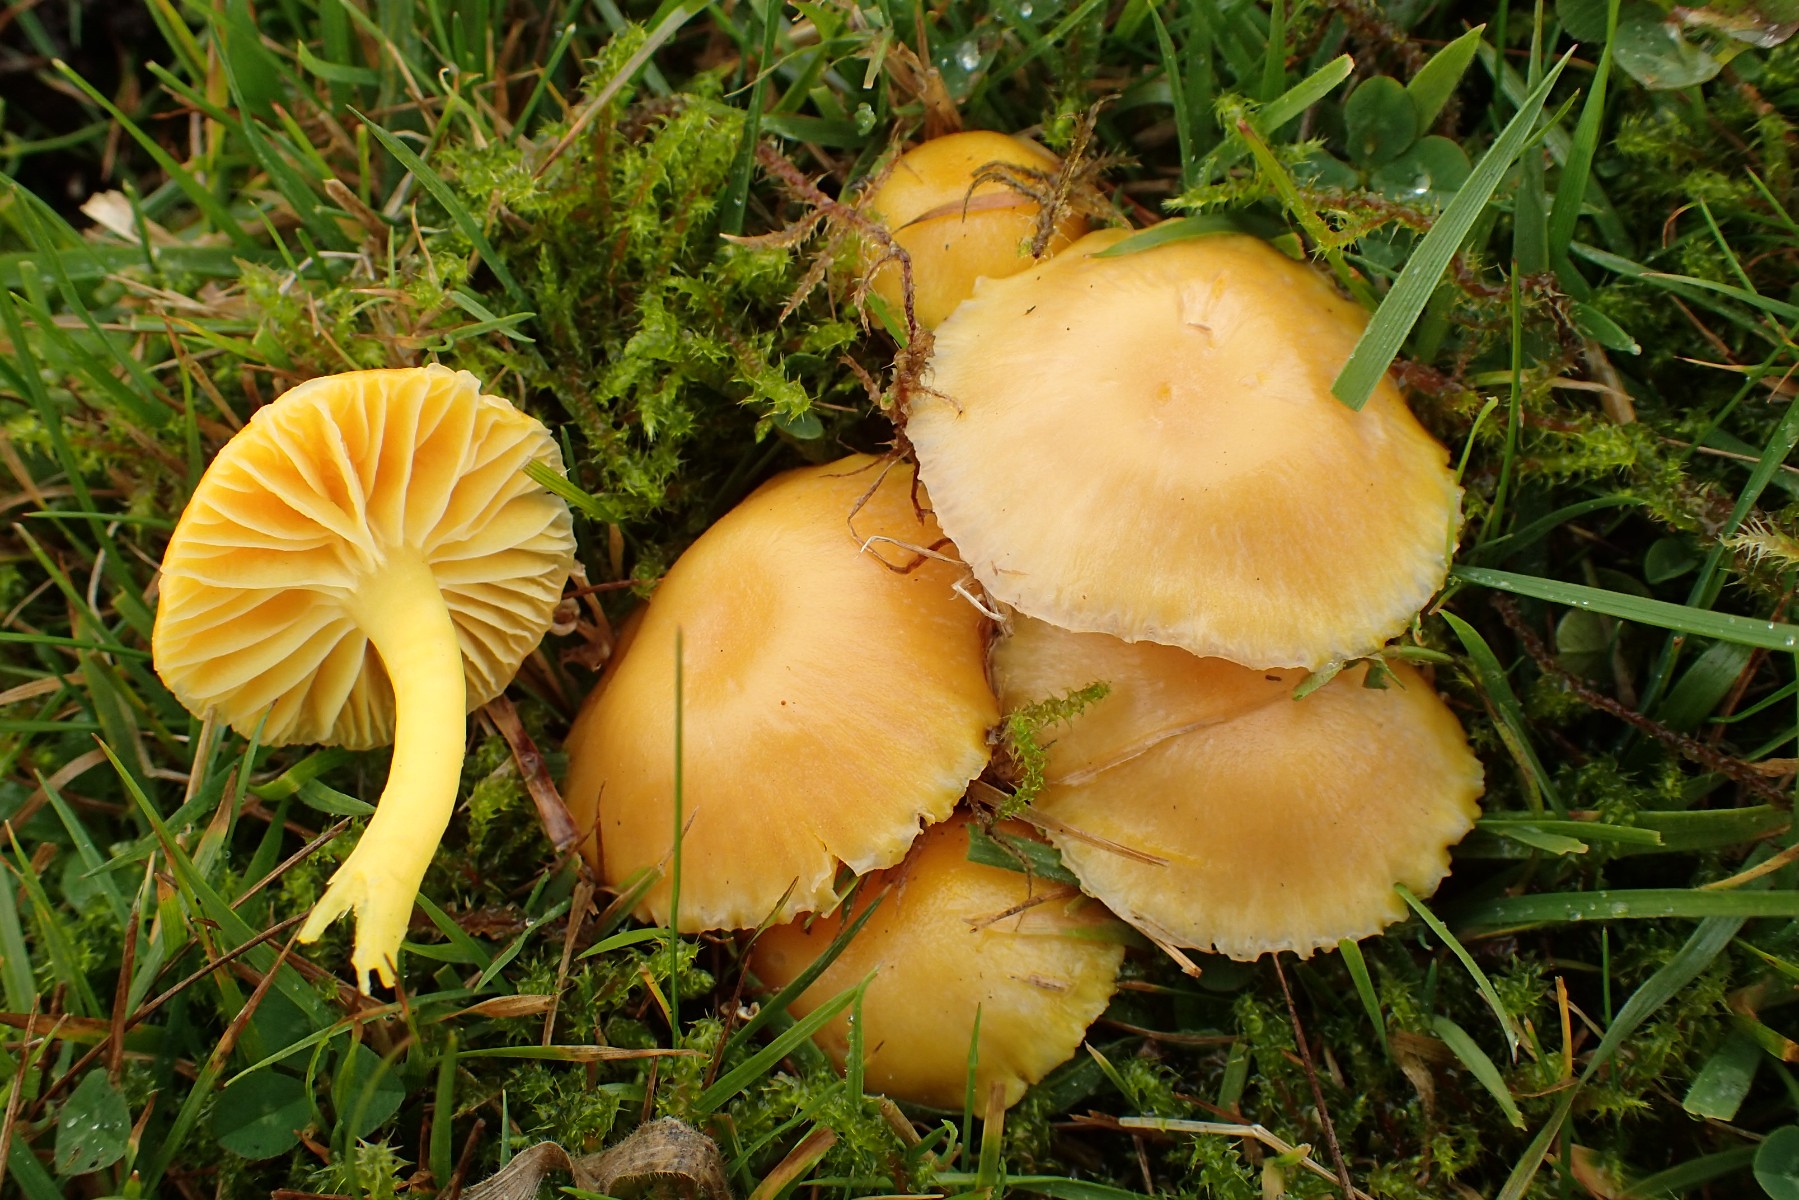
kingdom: Fungi
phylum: Basidiomycota
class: Agaricomycetes
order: Agaricales
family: Hygrophoraceae
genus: Hygrocybe
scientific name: Hygrocybe ceracea
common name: voksgul vokshat
